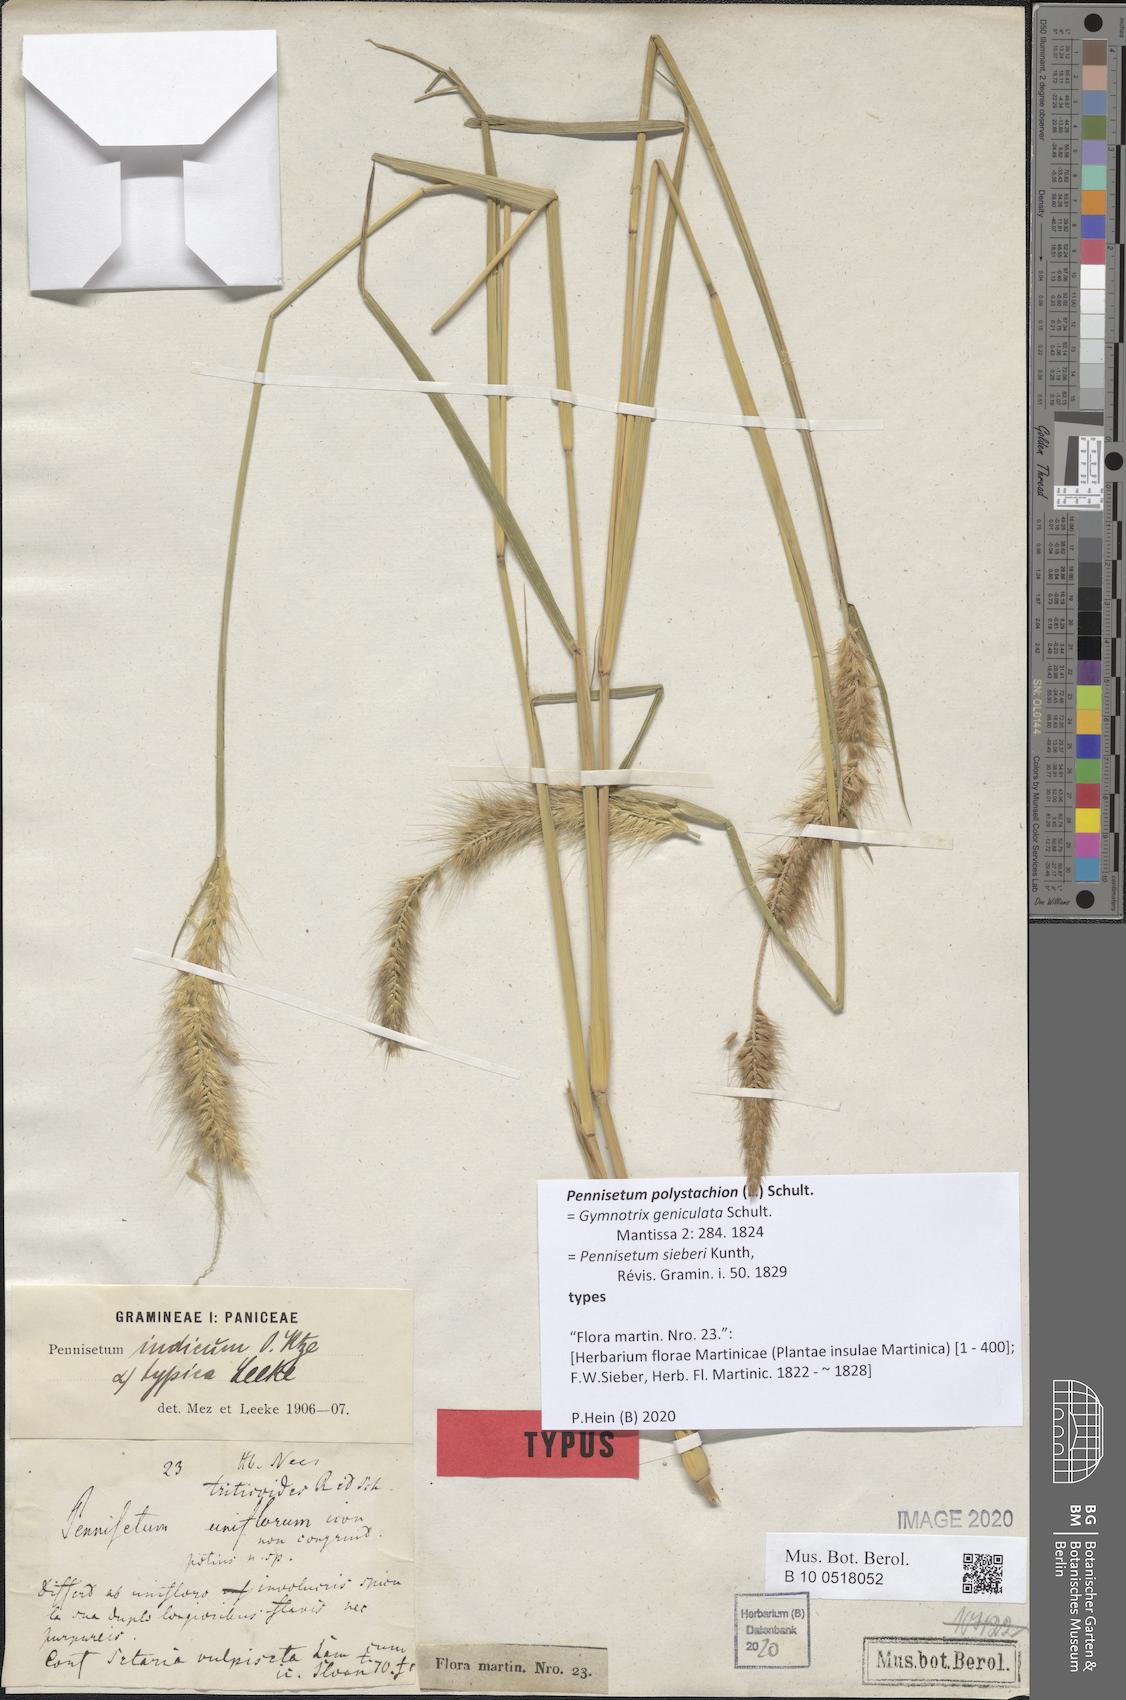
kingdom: Plantae
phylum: Tracheophyta
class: Liliopsida
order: Poales
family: Poaceae
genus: Setaria
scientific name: Setaria parviflora
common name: Knotroot bristle-grass
